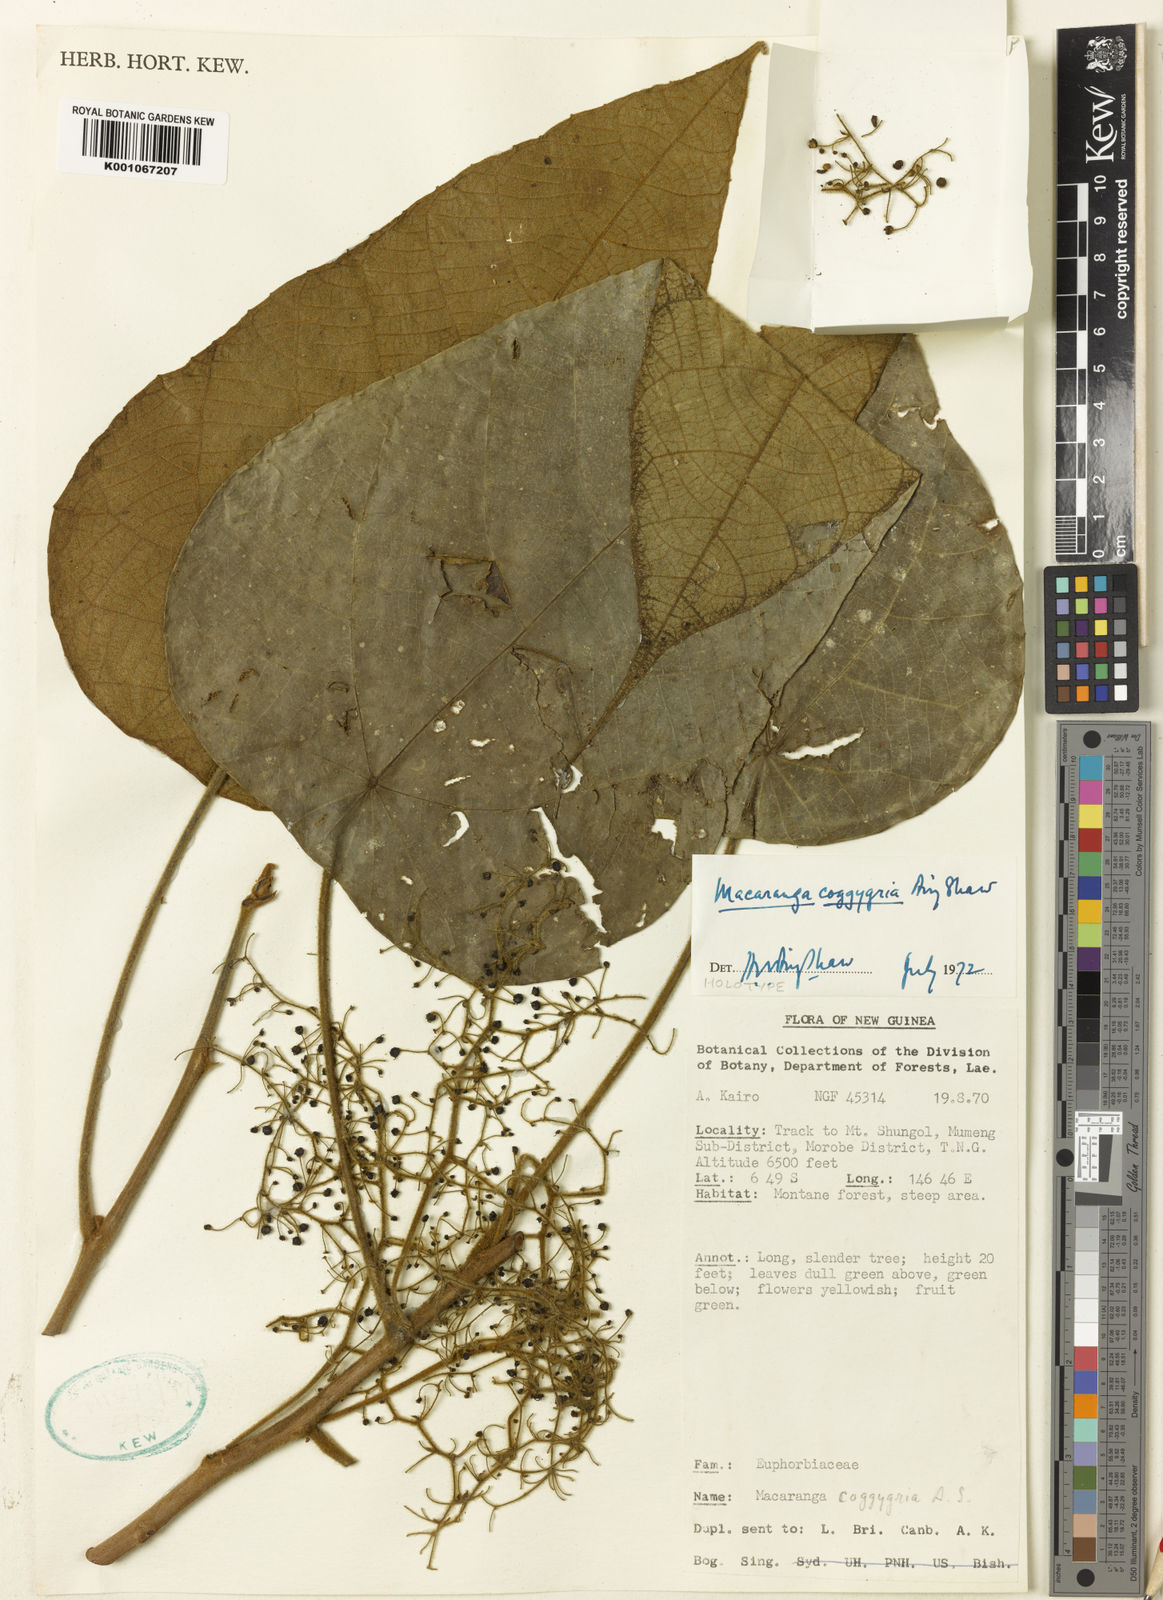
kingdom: Plantae
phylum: Tracheophyta
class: Magnoliopsida
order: Malpighiales
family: Euphorbiaceae
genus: Macaranga
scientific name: Macaranga coggygria
